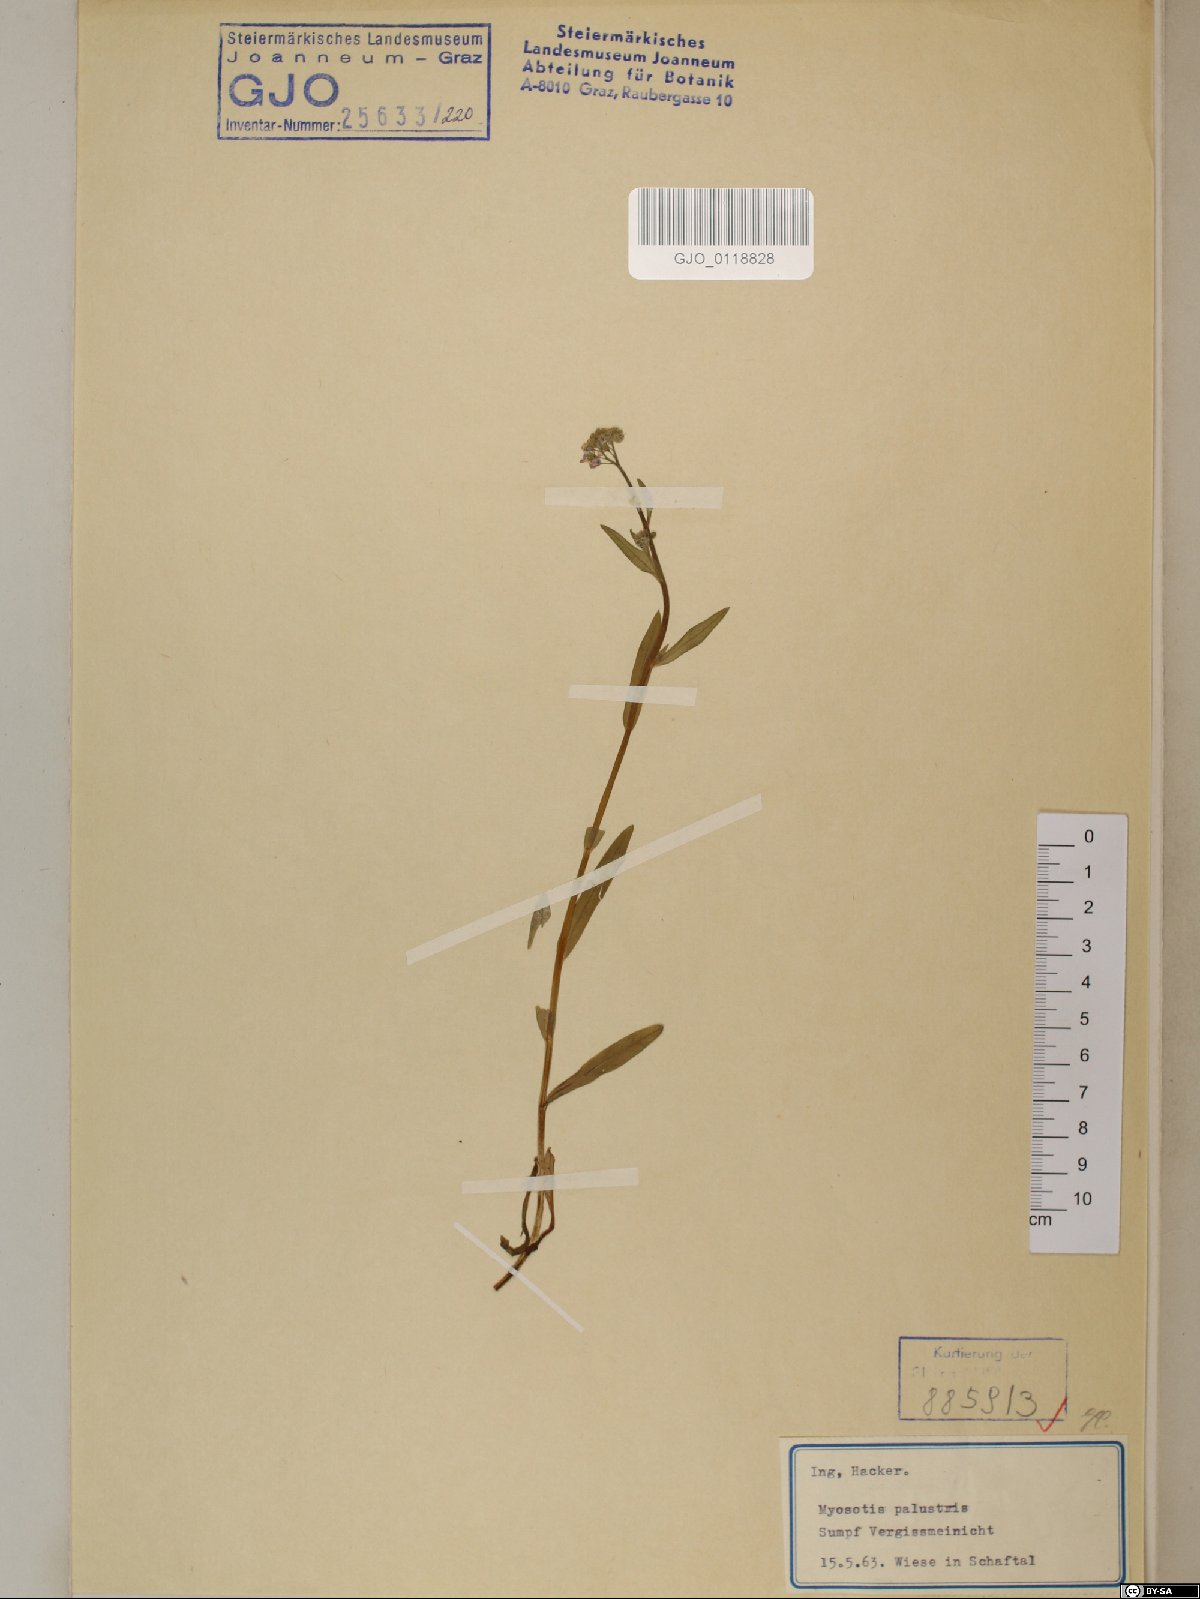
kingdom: Plantae
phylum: Tracheophyta
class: Magnoliopsida
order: Boraginales
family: Boraginaceae
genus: Myosotis
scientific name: Myosotis scorpioides
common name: Water forget-me-not
